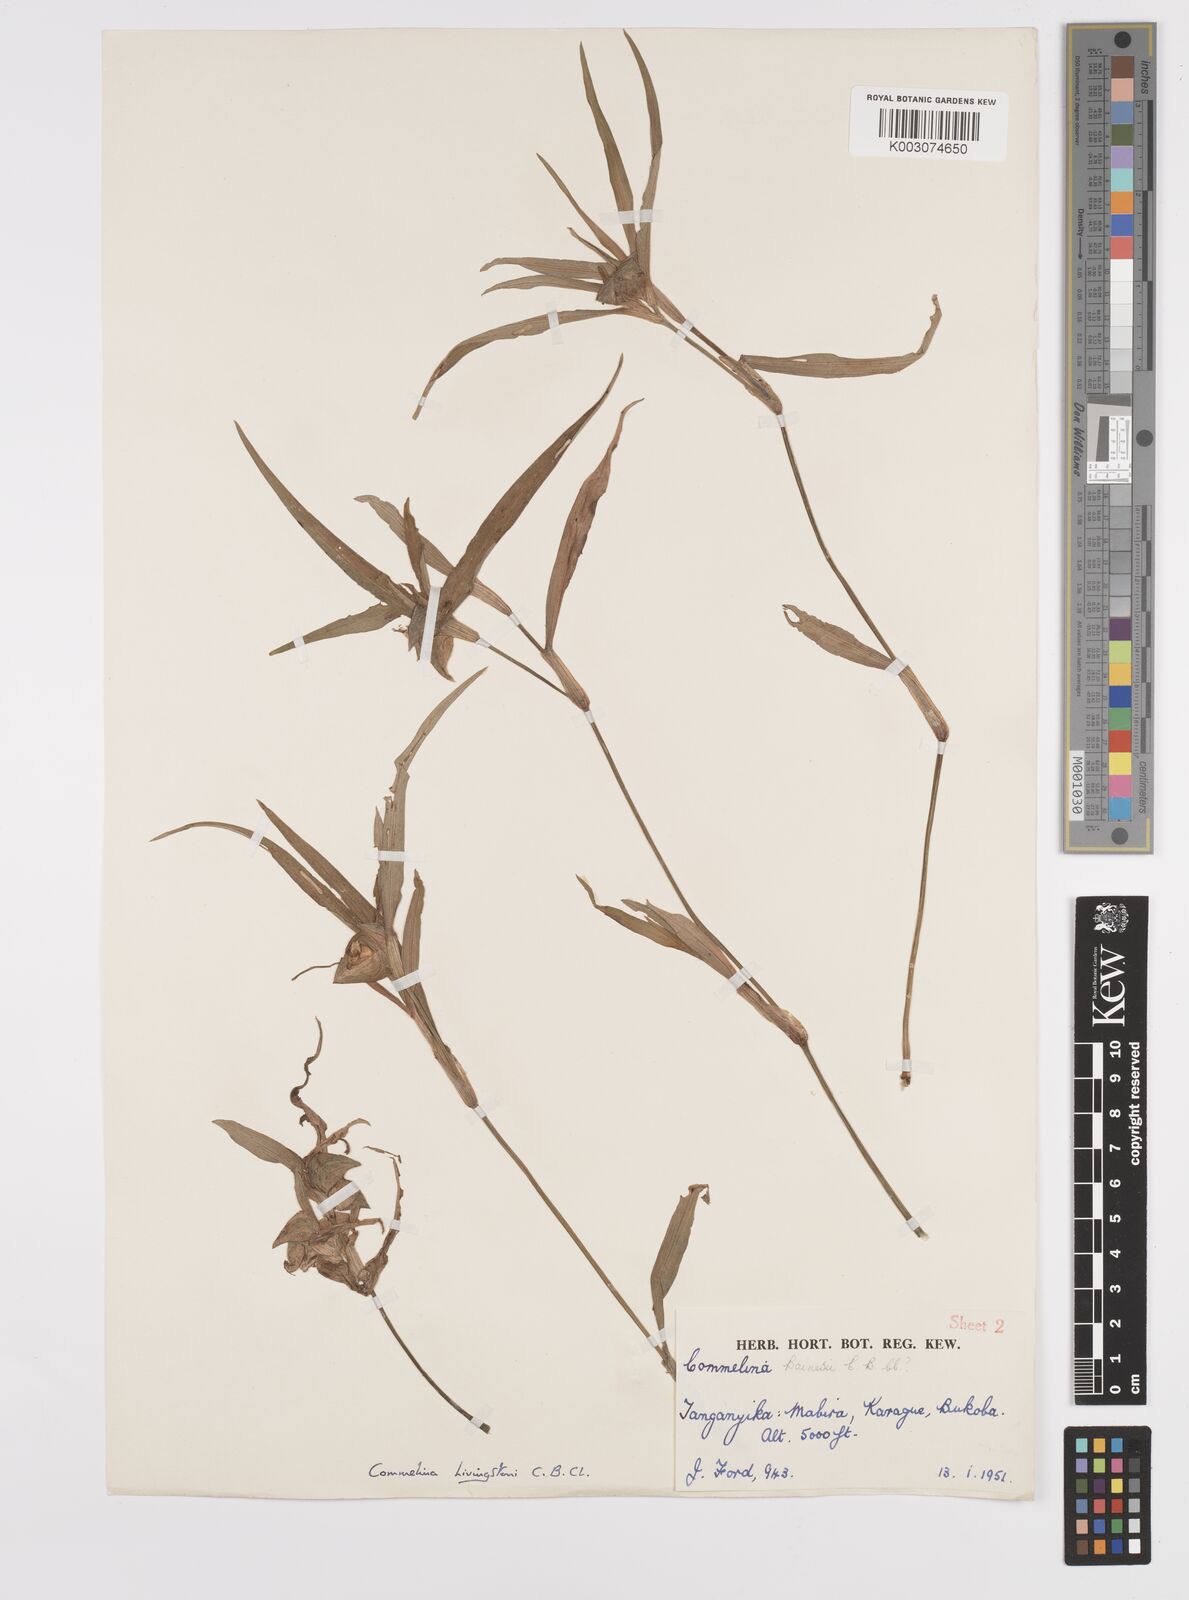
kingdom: Plantae
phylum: Tracheophyta
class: Liliopsida
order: Commelinales
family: Commelinaceae
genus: Commelina
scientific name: Commelina erecta
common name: Blousel blommetjie
